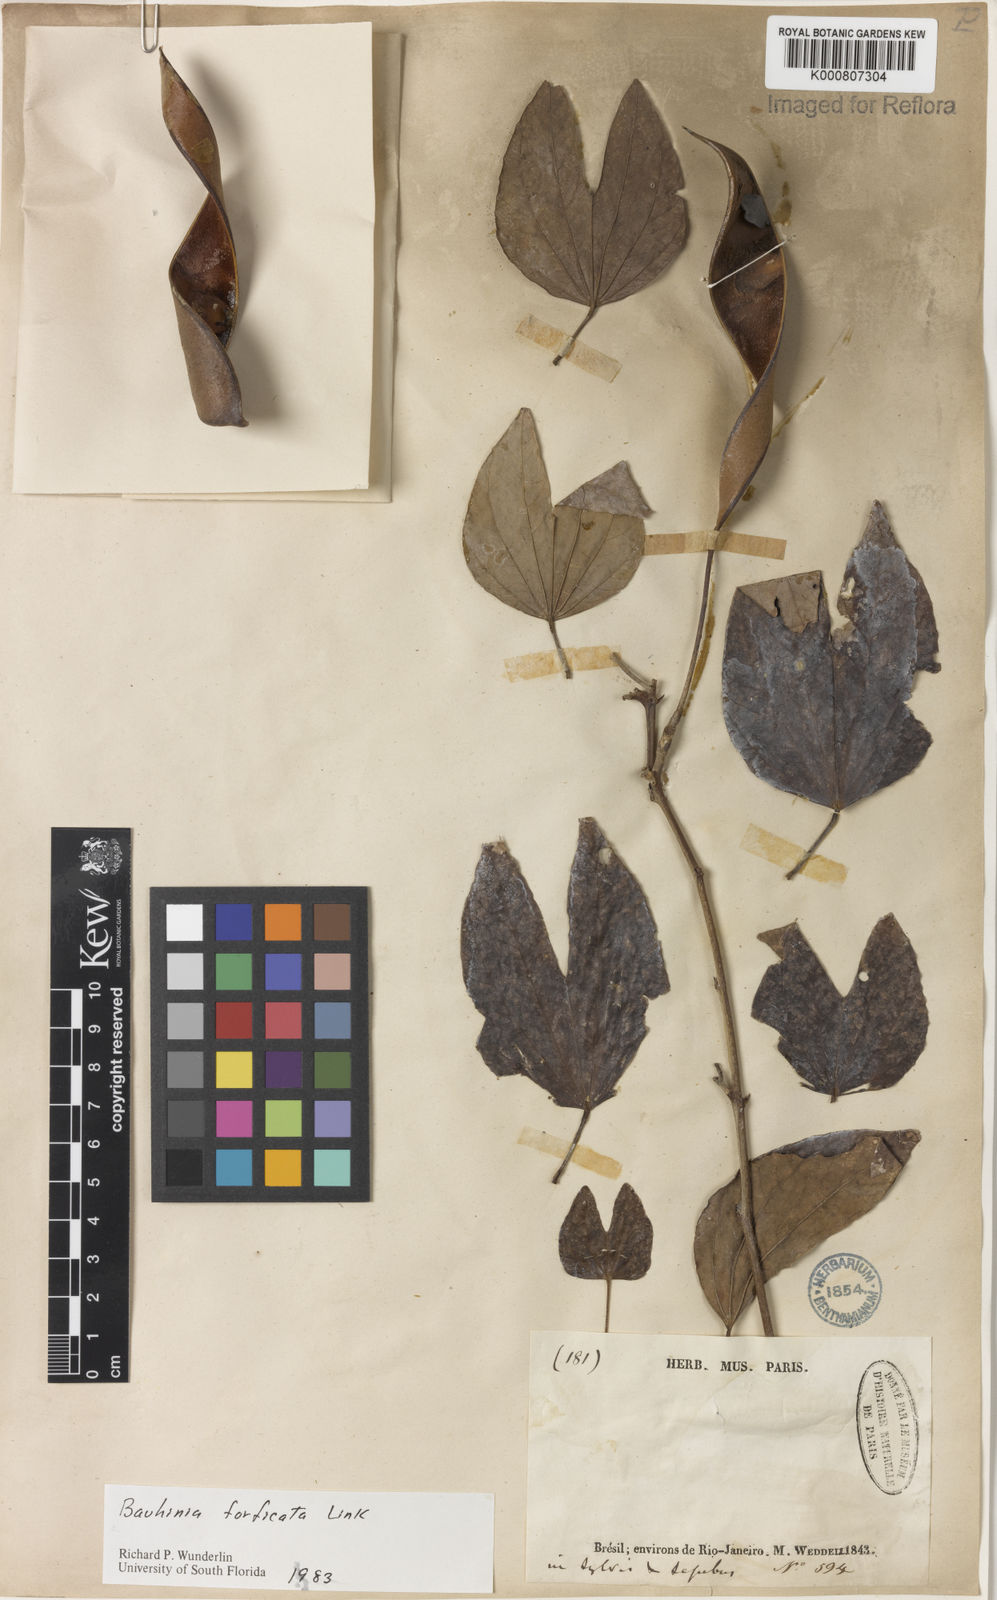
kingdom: Plantae
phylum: Tracheophyta
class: Magnoliopsida
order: Fabales
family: Fabaceae
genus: Bauhinia
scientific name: Bauhinia forficata
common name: Orchid tree
